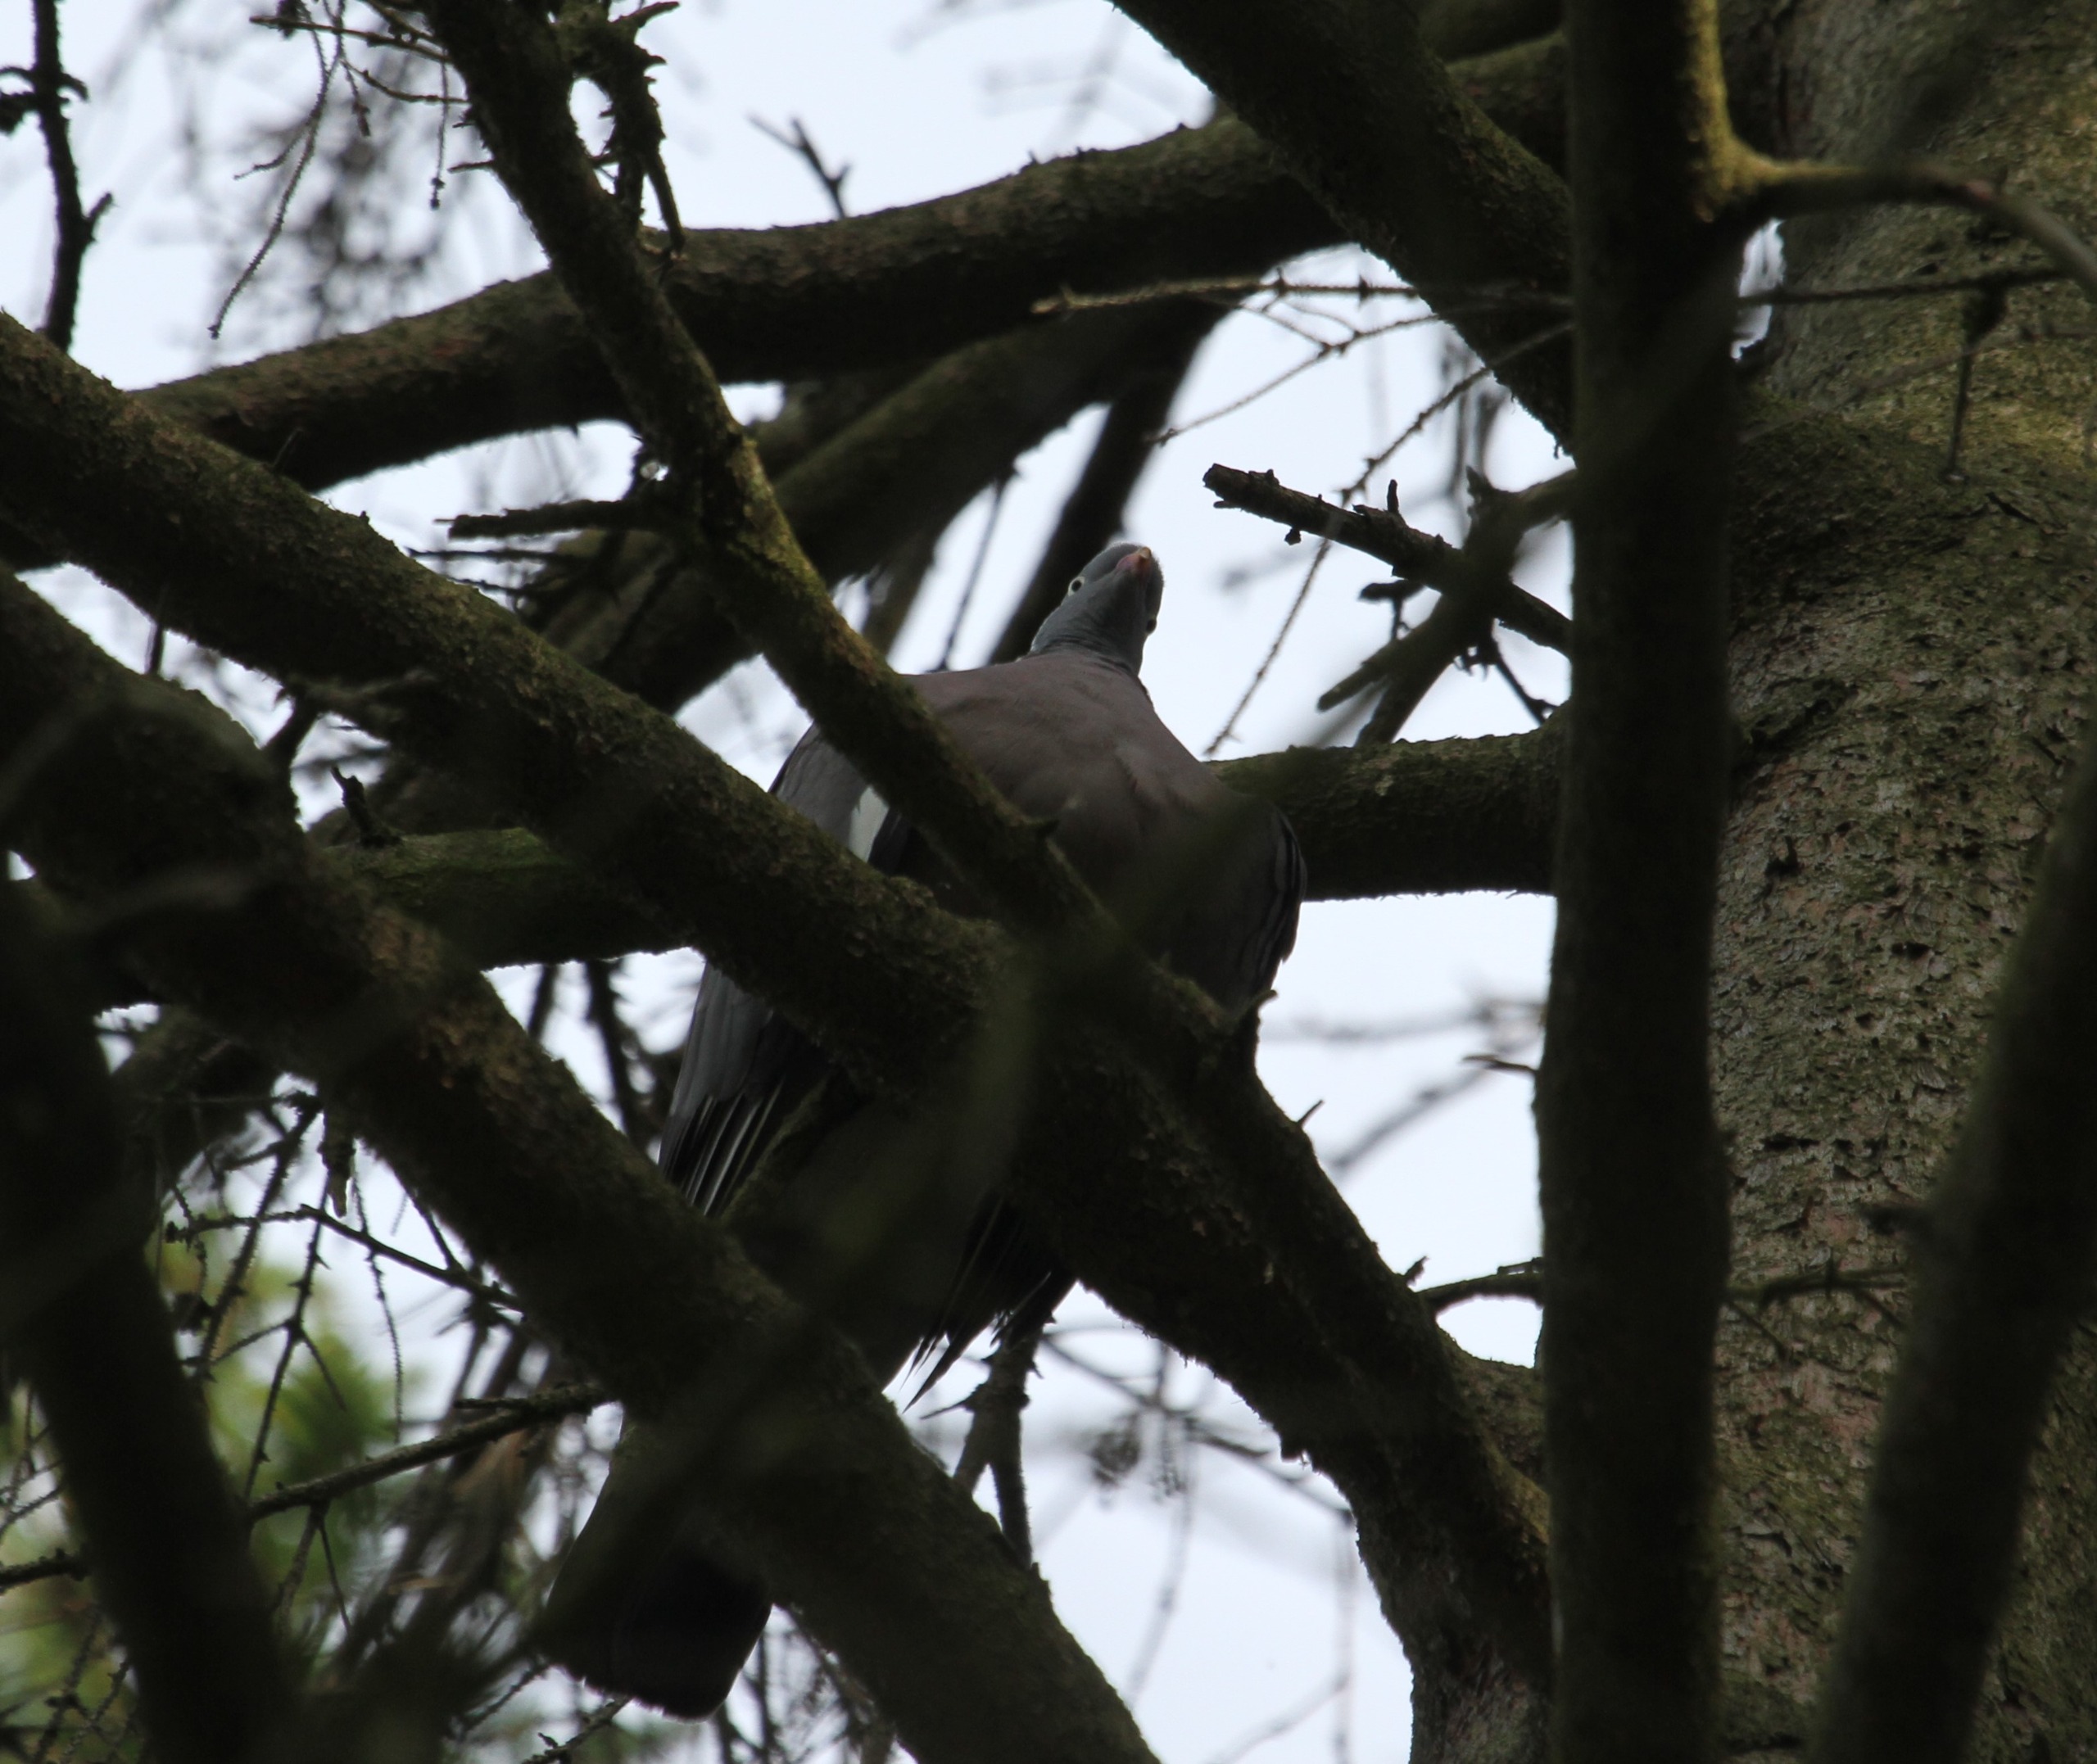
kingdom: Animalia
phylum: Chordata
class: Aves
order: Columbiformes
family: Columbidae
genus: Columba
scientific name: Columba palumbus
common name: Ringdue
